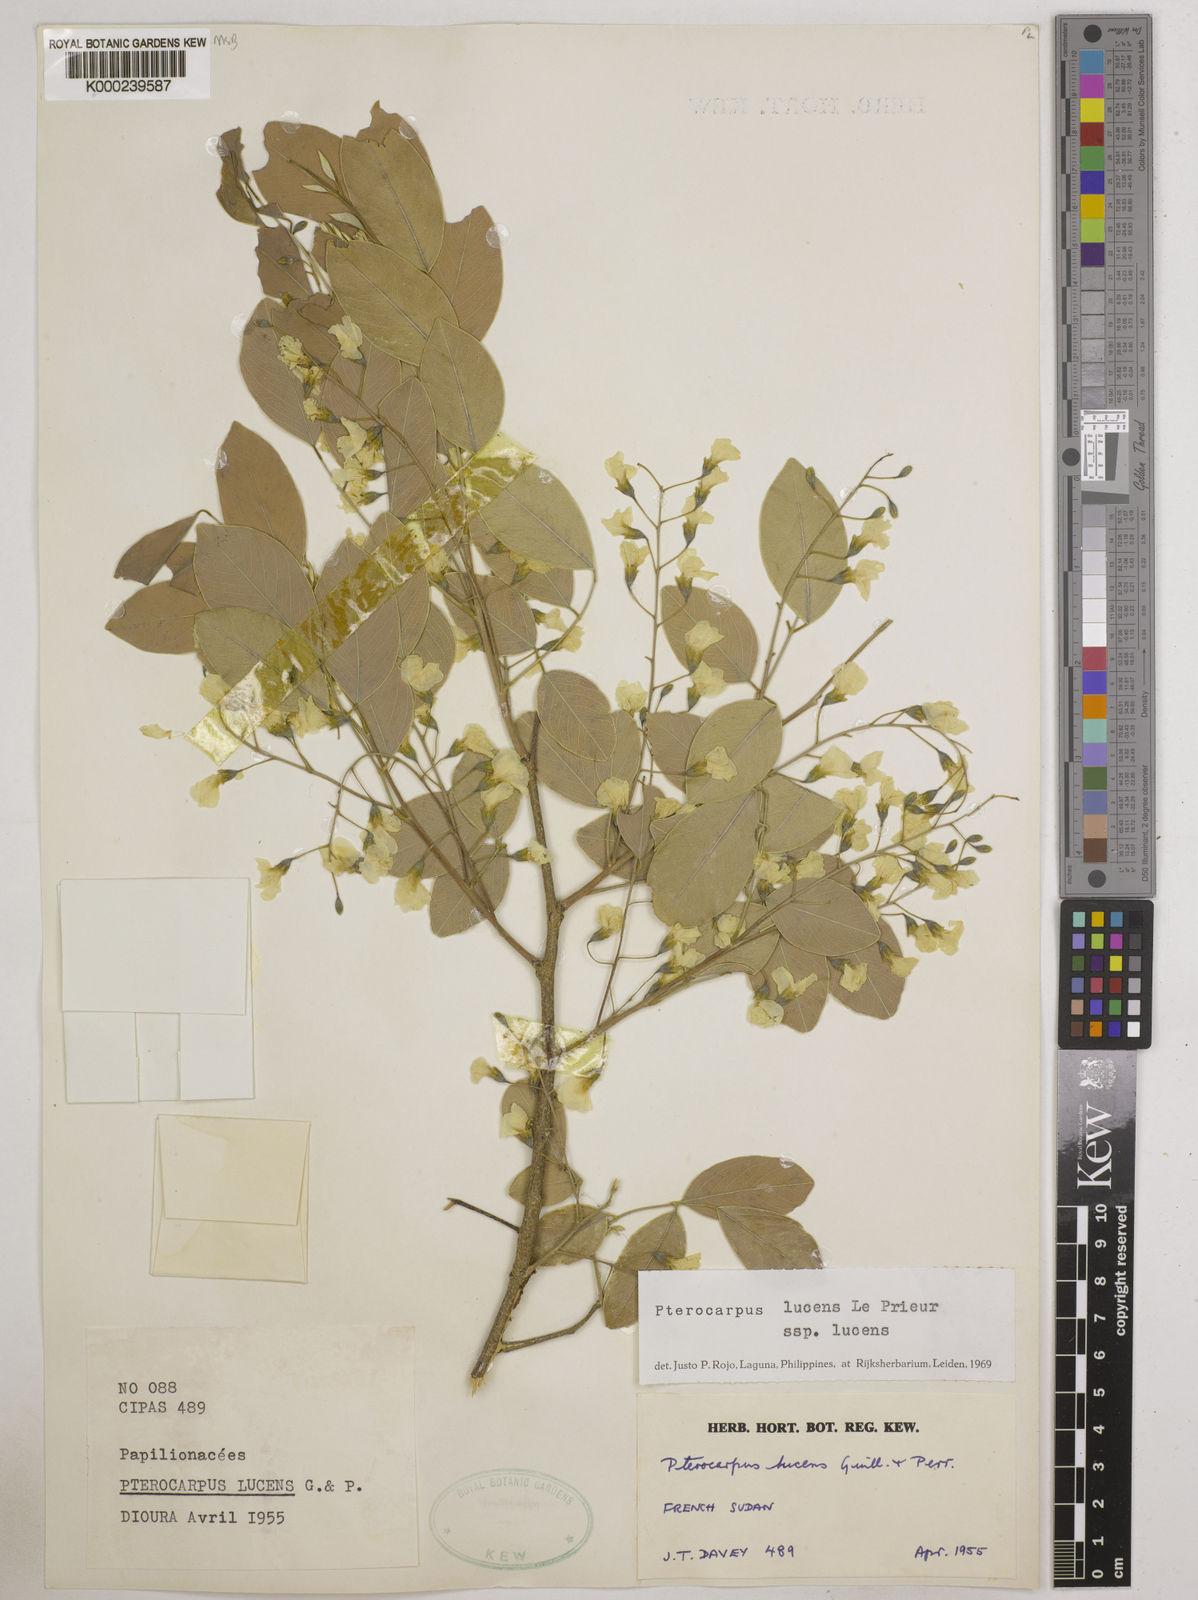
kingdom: Plantae
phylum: Tracheophyta
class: Magnoliopsida
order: Fabales
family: Fabaceae
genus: Pterocarpus
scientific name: Pterocarpus lucens
